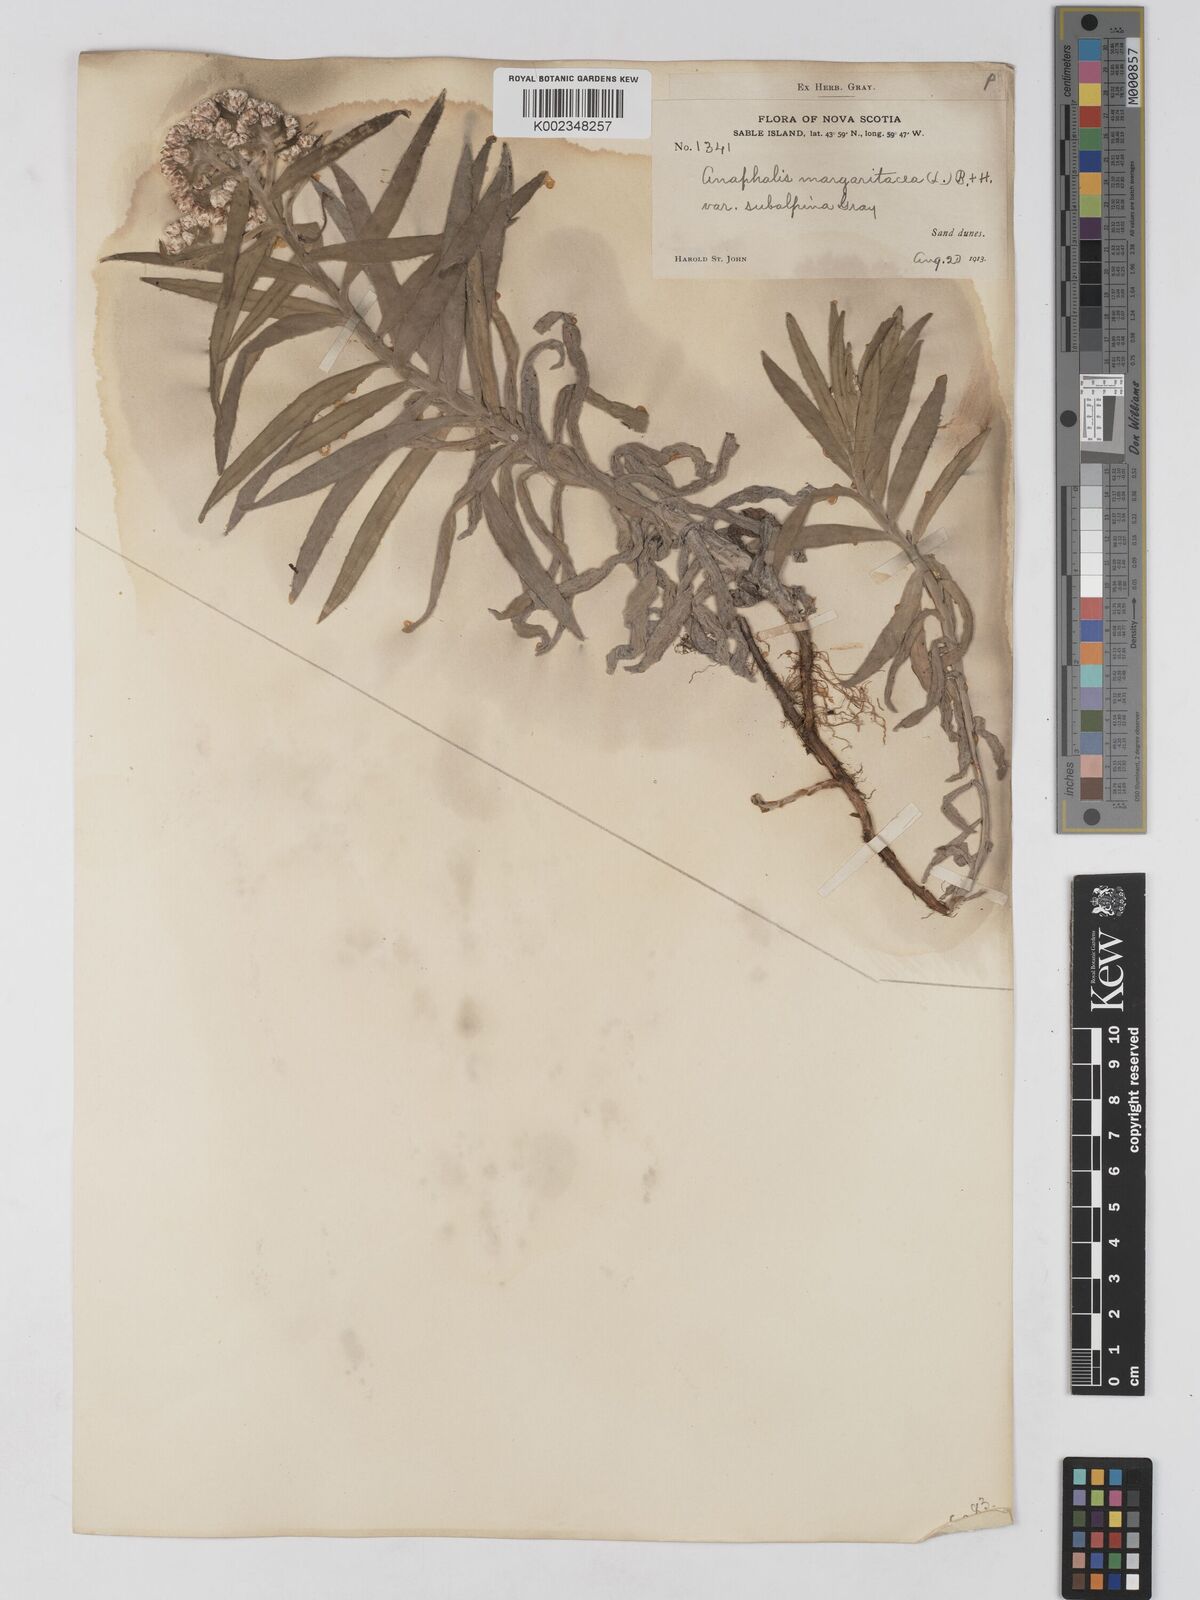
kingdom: Plantae
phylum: Tracheophyta
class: Magnoliopsida
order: Asterales
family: Asteraceae
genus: Anaphalis
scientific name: Anaphalis margaritacea
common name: Pearly everlasting
